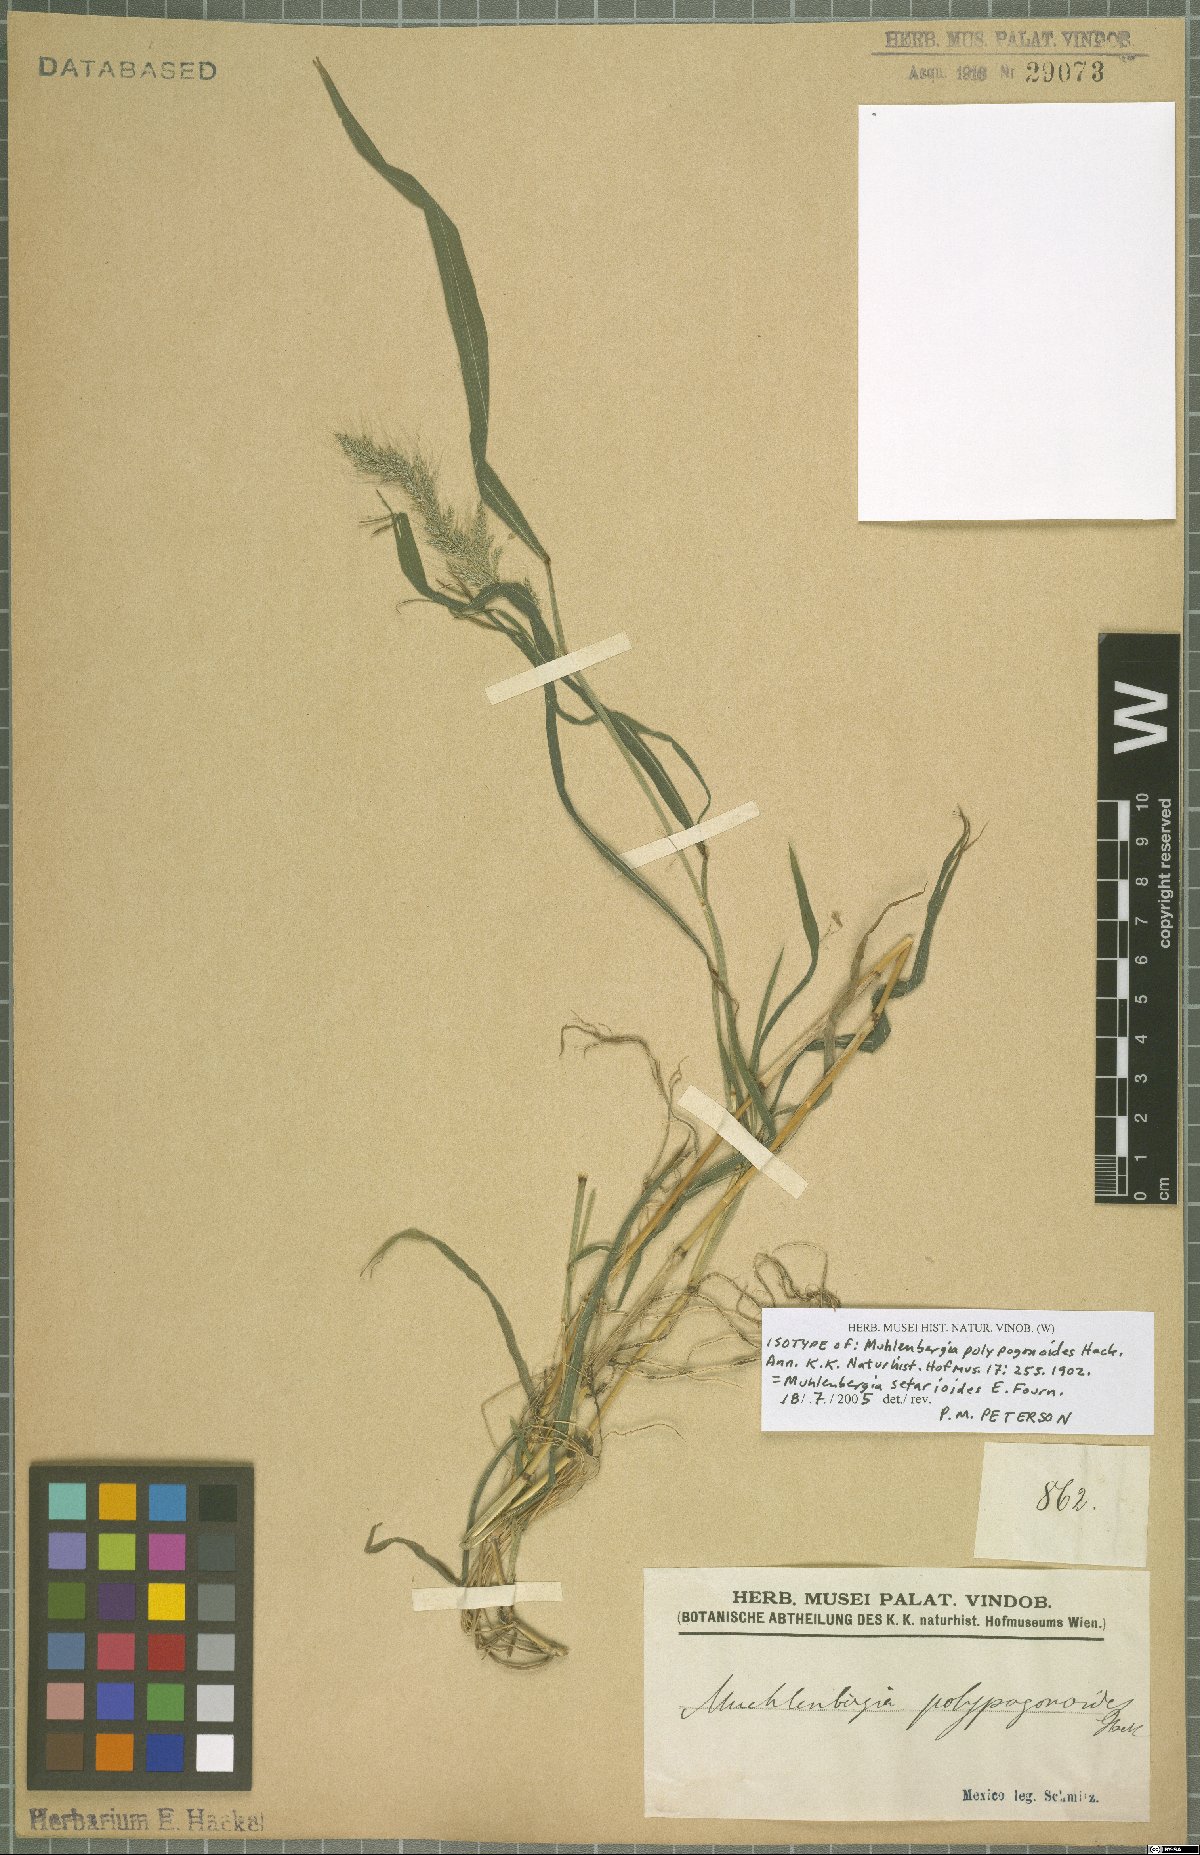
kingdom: Plantae
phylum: Tracheophyta
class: Liliopsida
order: Poales
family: Poaceae
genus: Muhlenbergia
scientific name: Muhlenbergia setarioides
